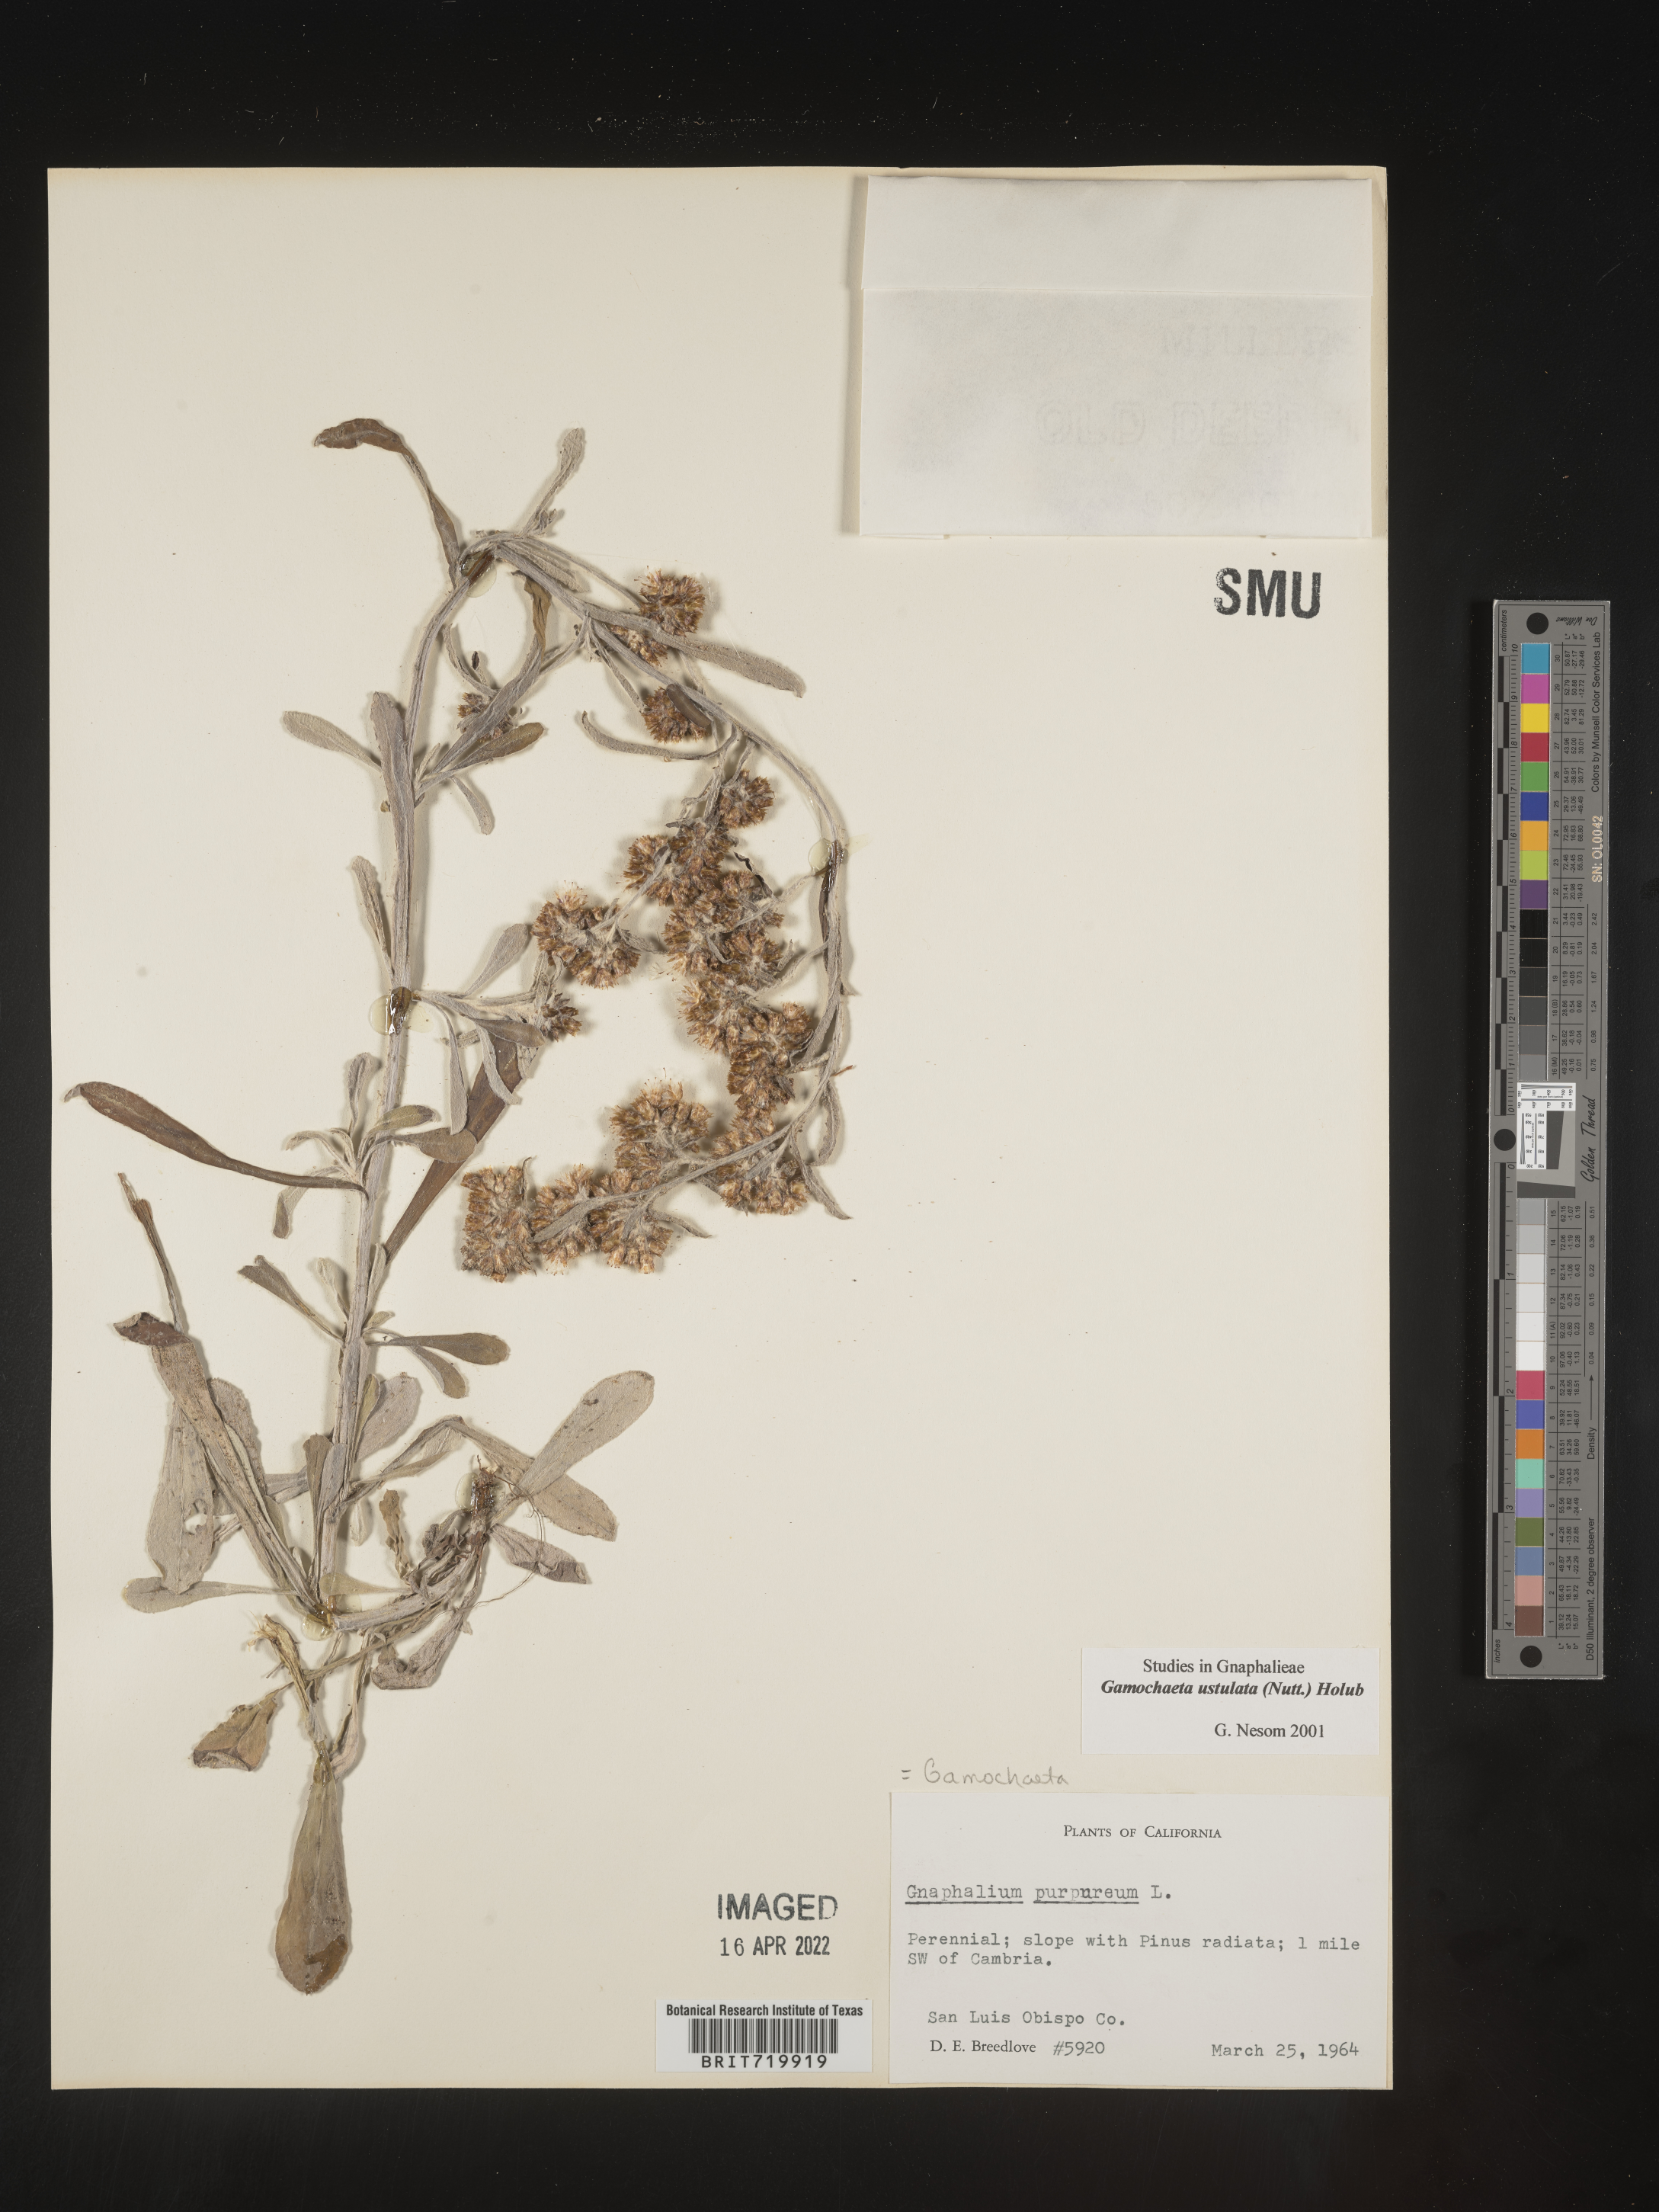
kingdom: Plantae
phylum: Tracheophyta
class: Magnoliopsida
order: Asterales
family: Asteraceae
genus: Gamochaeta
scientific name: Gamochaeta ustulata
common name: Pacific cudweed
